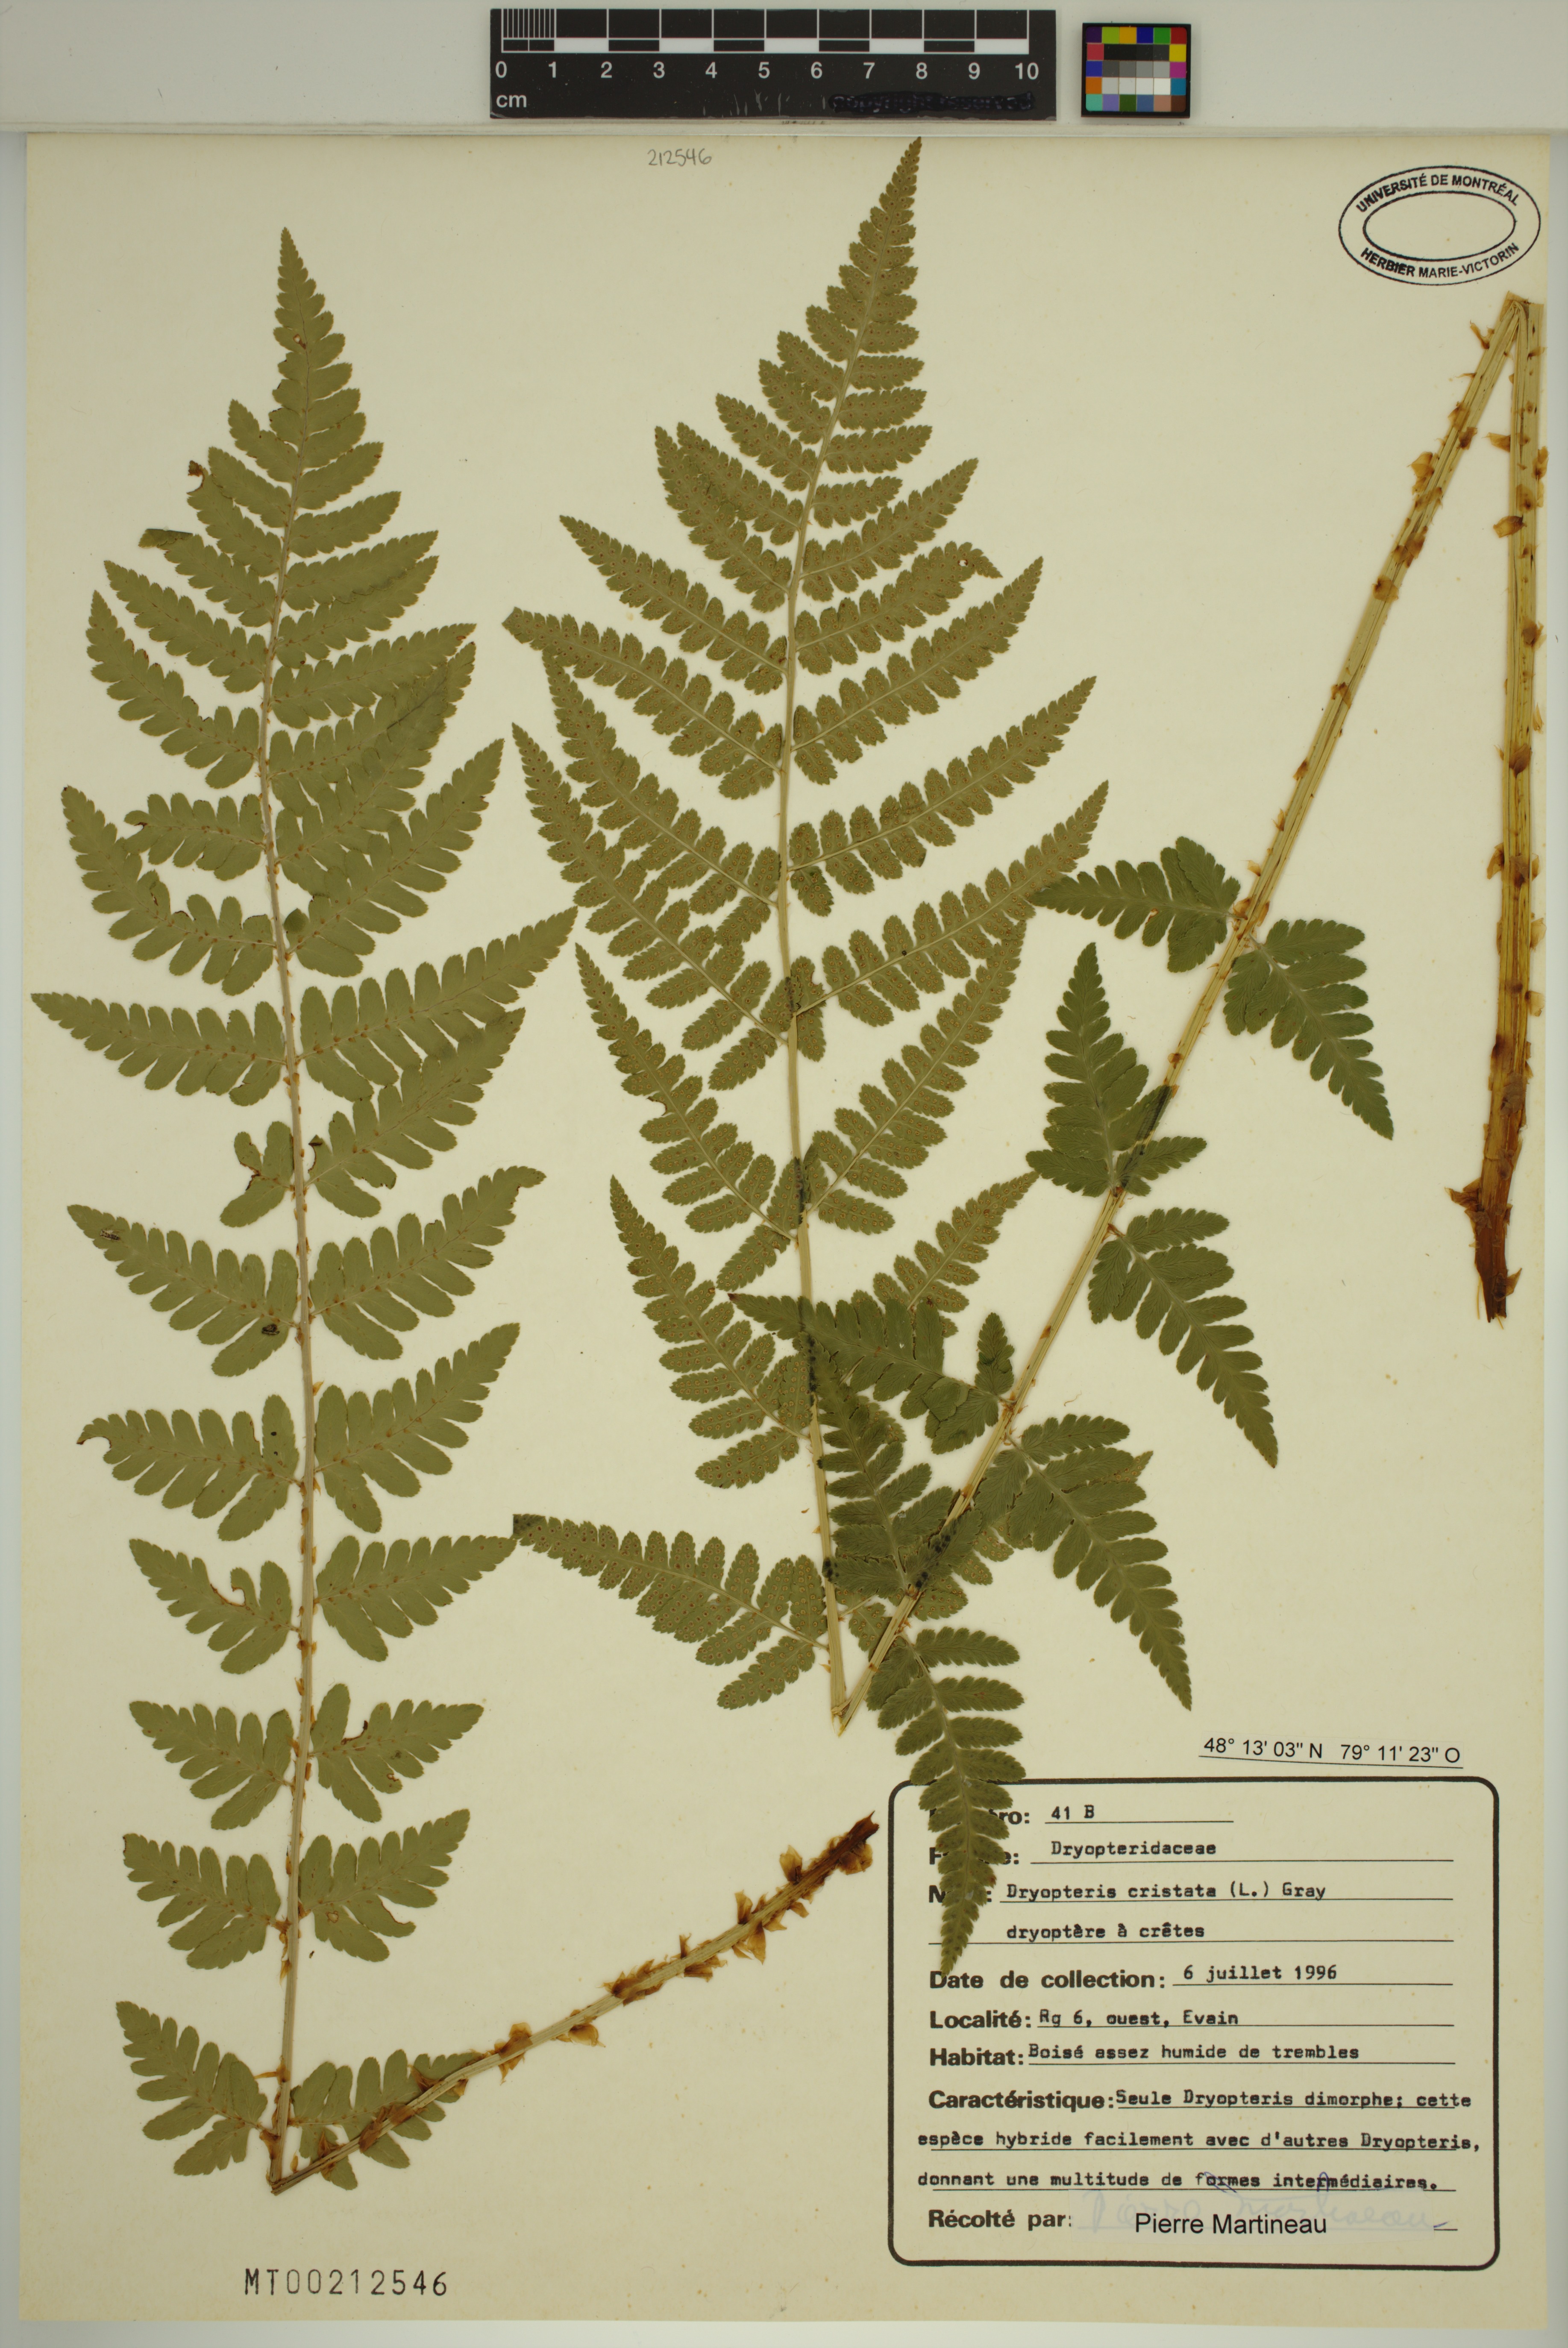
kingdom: Plantae
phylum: Tracheophyta
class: Polypodiopsida
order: Polypodiales
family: Dryopteridaceae
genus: Dryopteris
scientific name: Dryopteris cristata
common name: Crested wood fern
